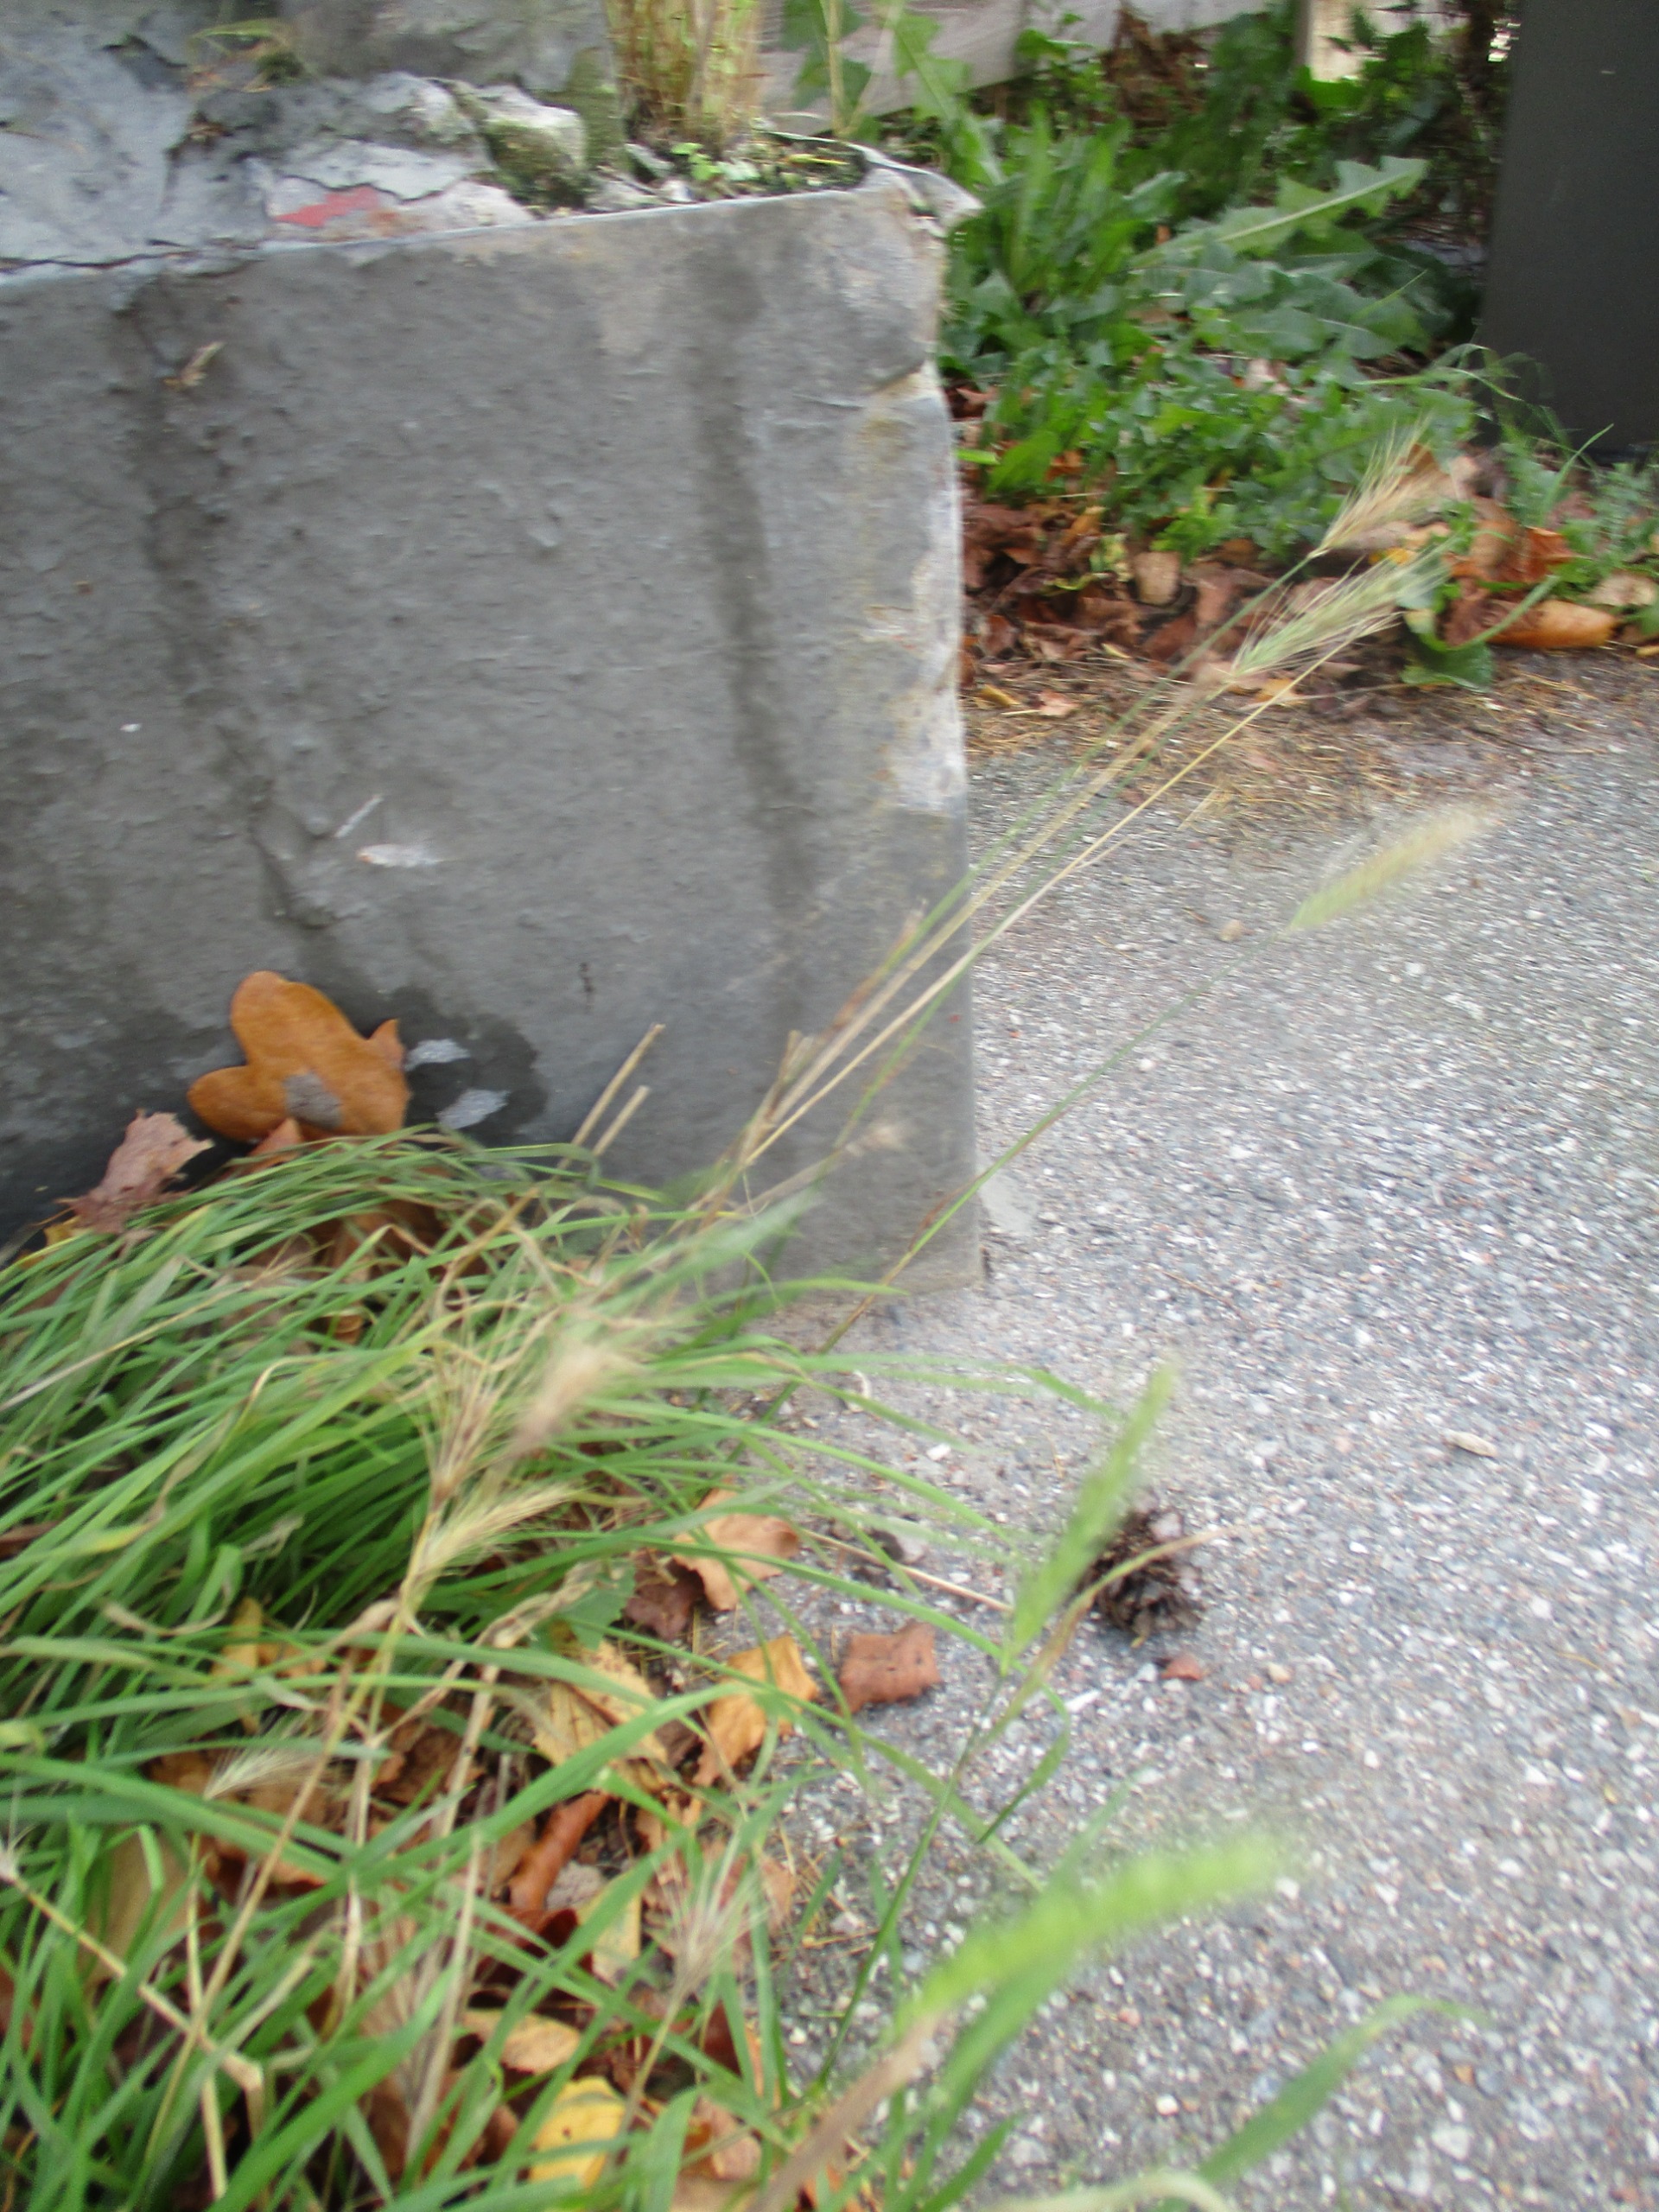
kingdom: Plantae
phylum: Tracheophyta
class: Liliopsida
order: Poales
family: Poaceae
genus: Hordeum
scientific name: Hordeum murinum
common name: Gold byg
